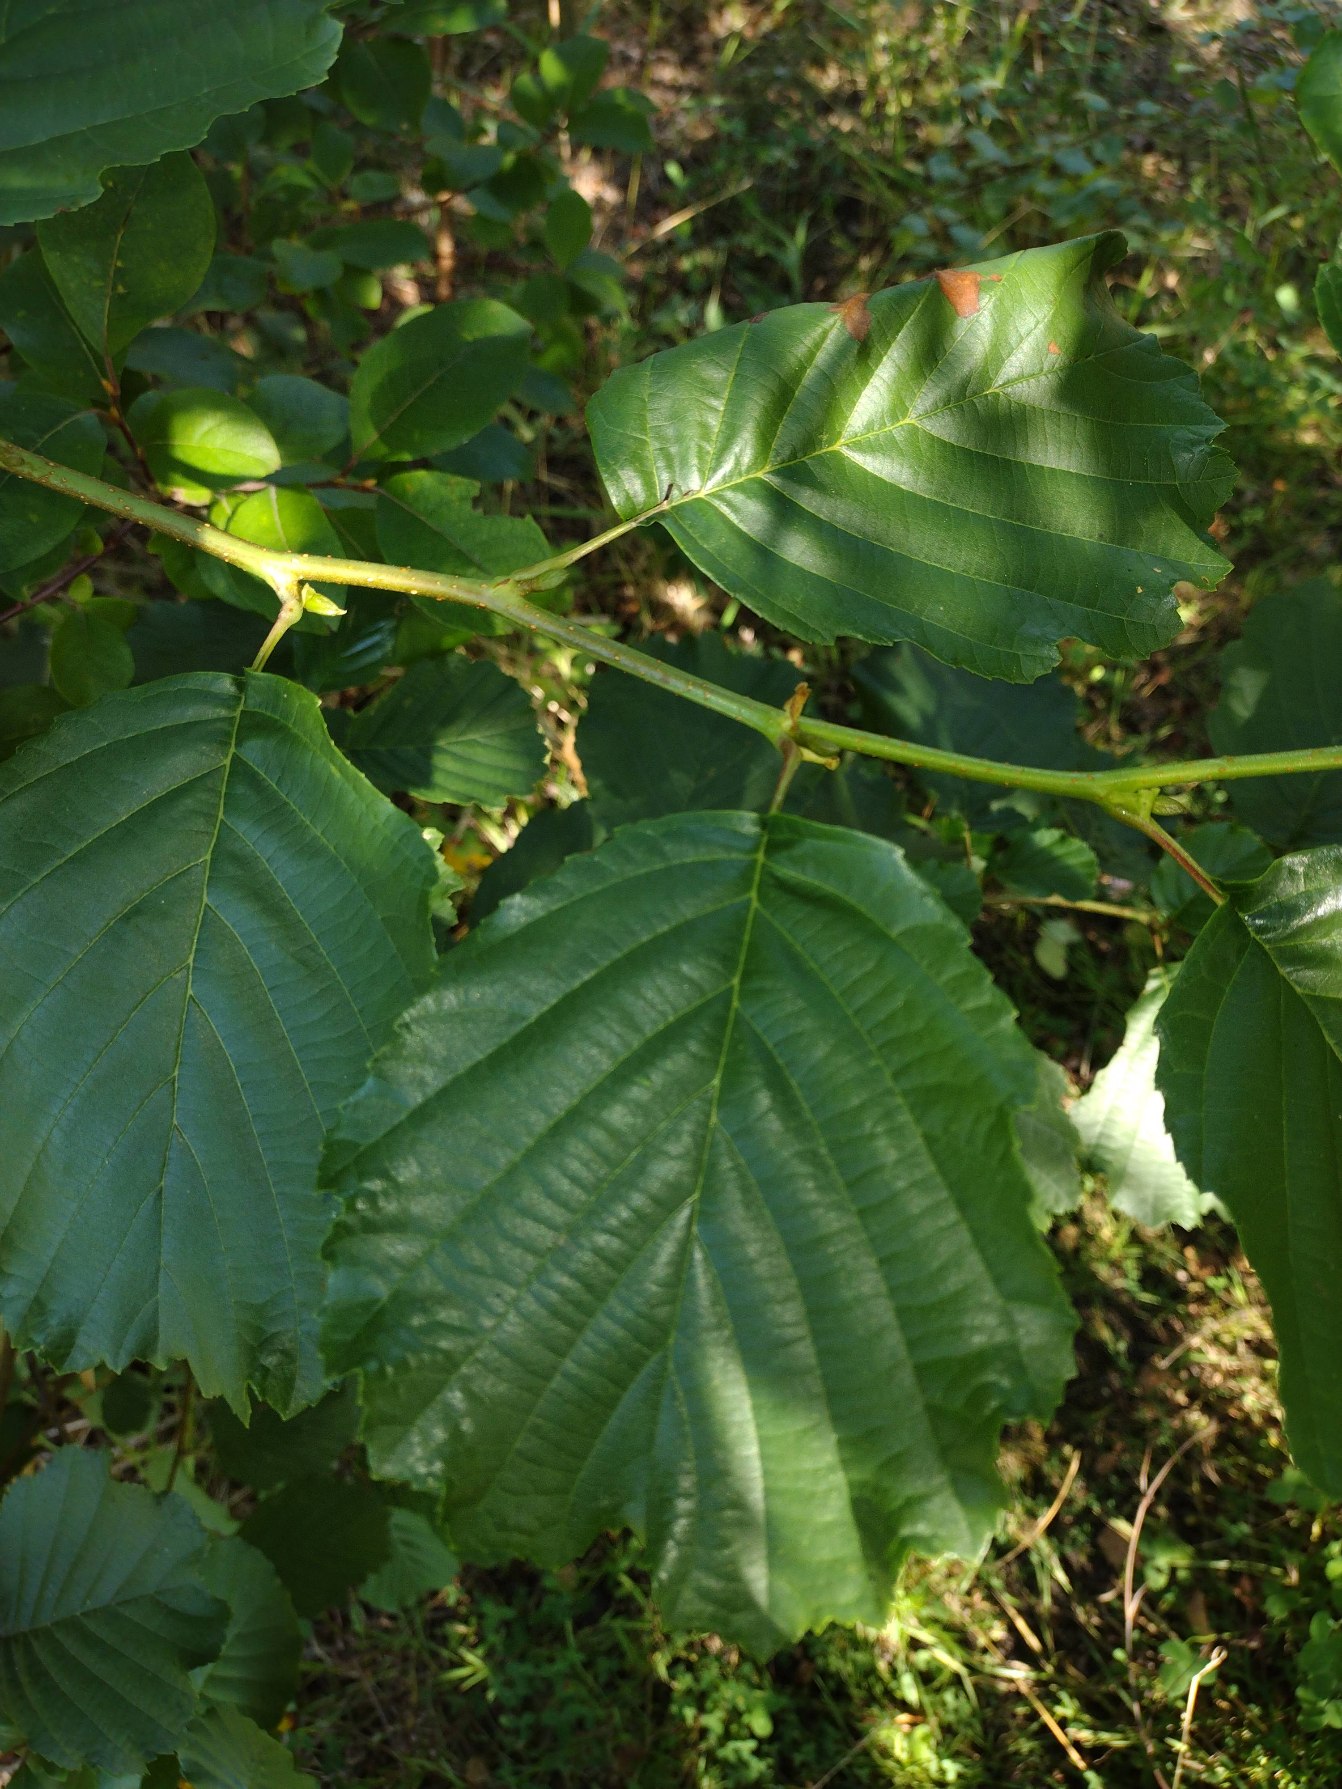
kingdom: Plantae
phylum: Tracheophyta
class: Magnoliopsida
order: Fagales
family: Betulaceae
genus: Alnus
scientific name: Alnus glutinosa
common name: Rød-el
